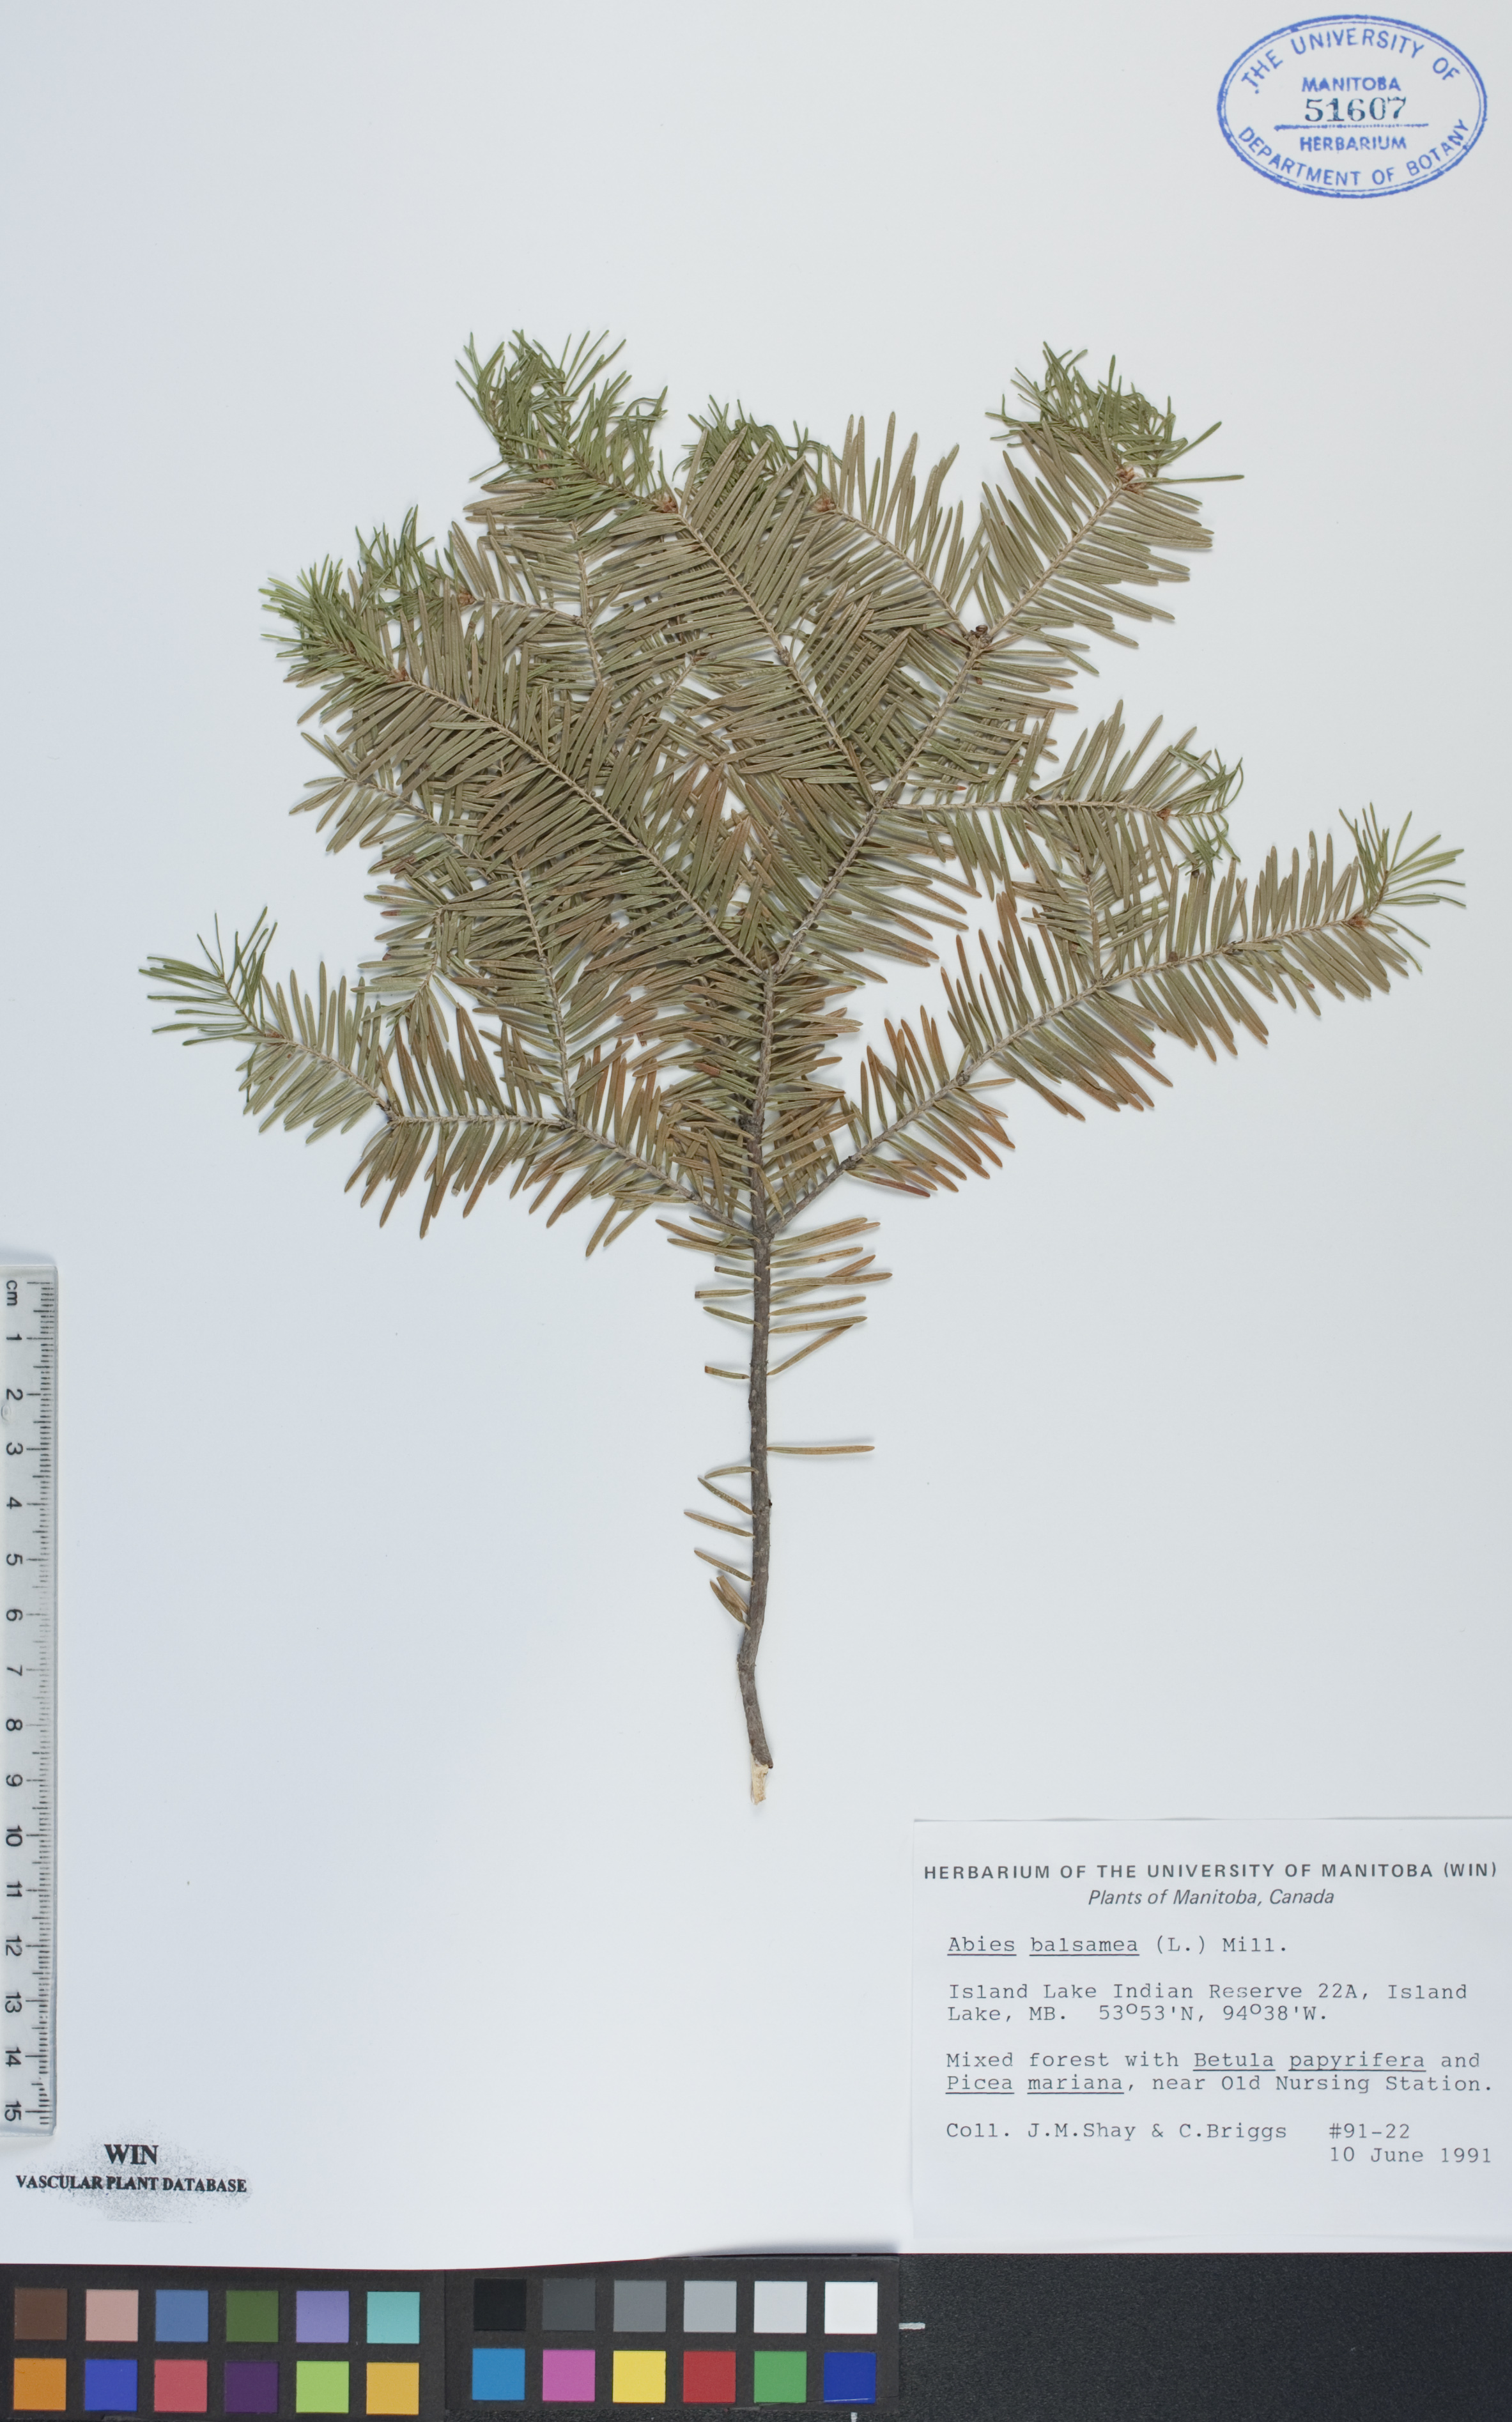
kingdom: Plantae
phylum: Tracheophyta
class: Pinopsida
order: Pinales
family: Pinaceae
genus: Abies
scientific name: Abies balsamea
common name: Balsam fir
